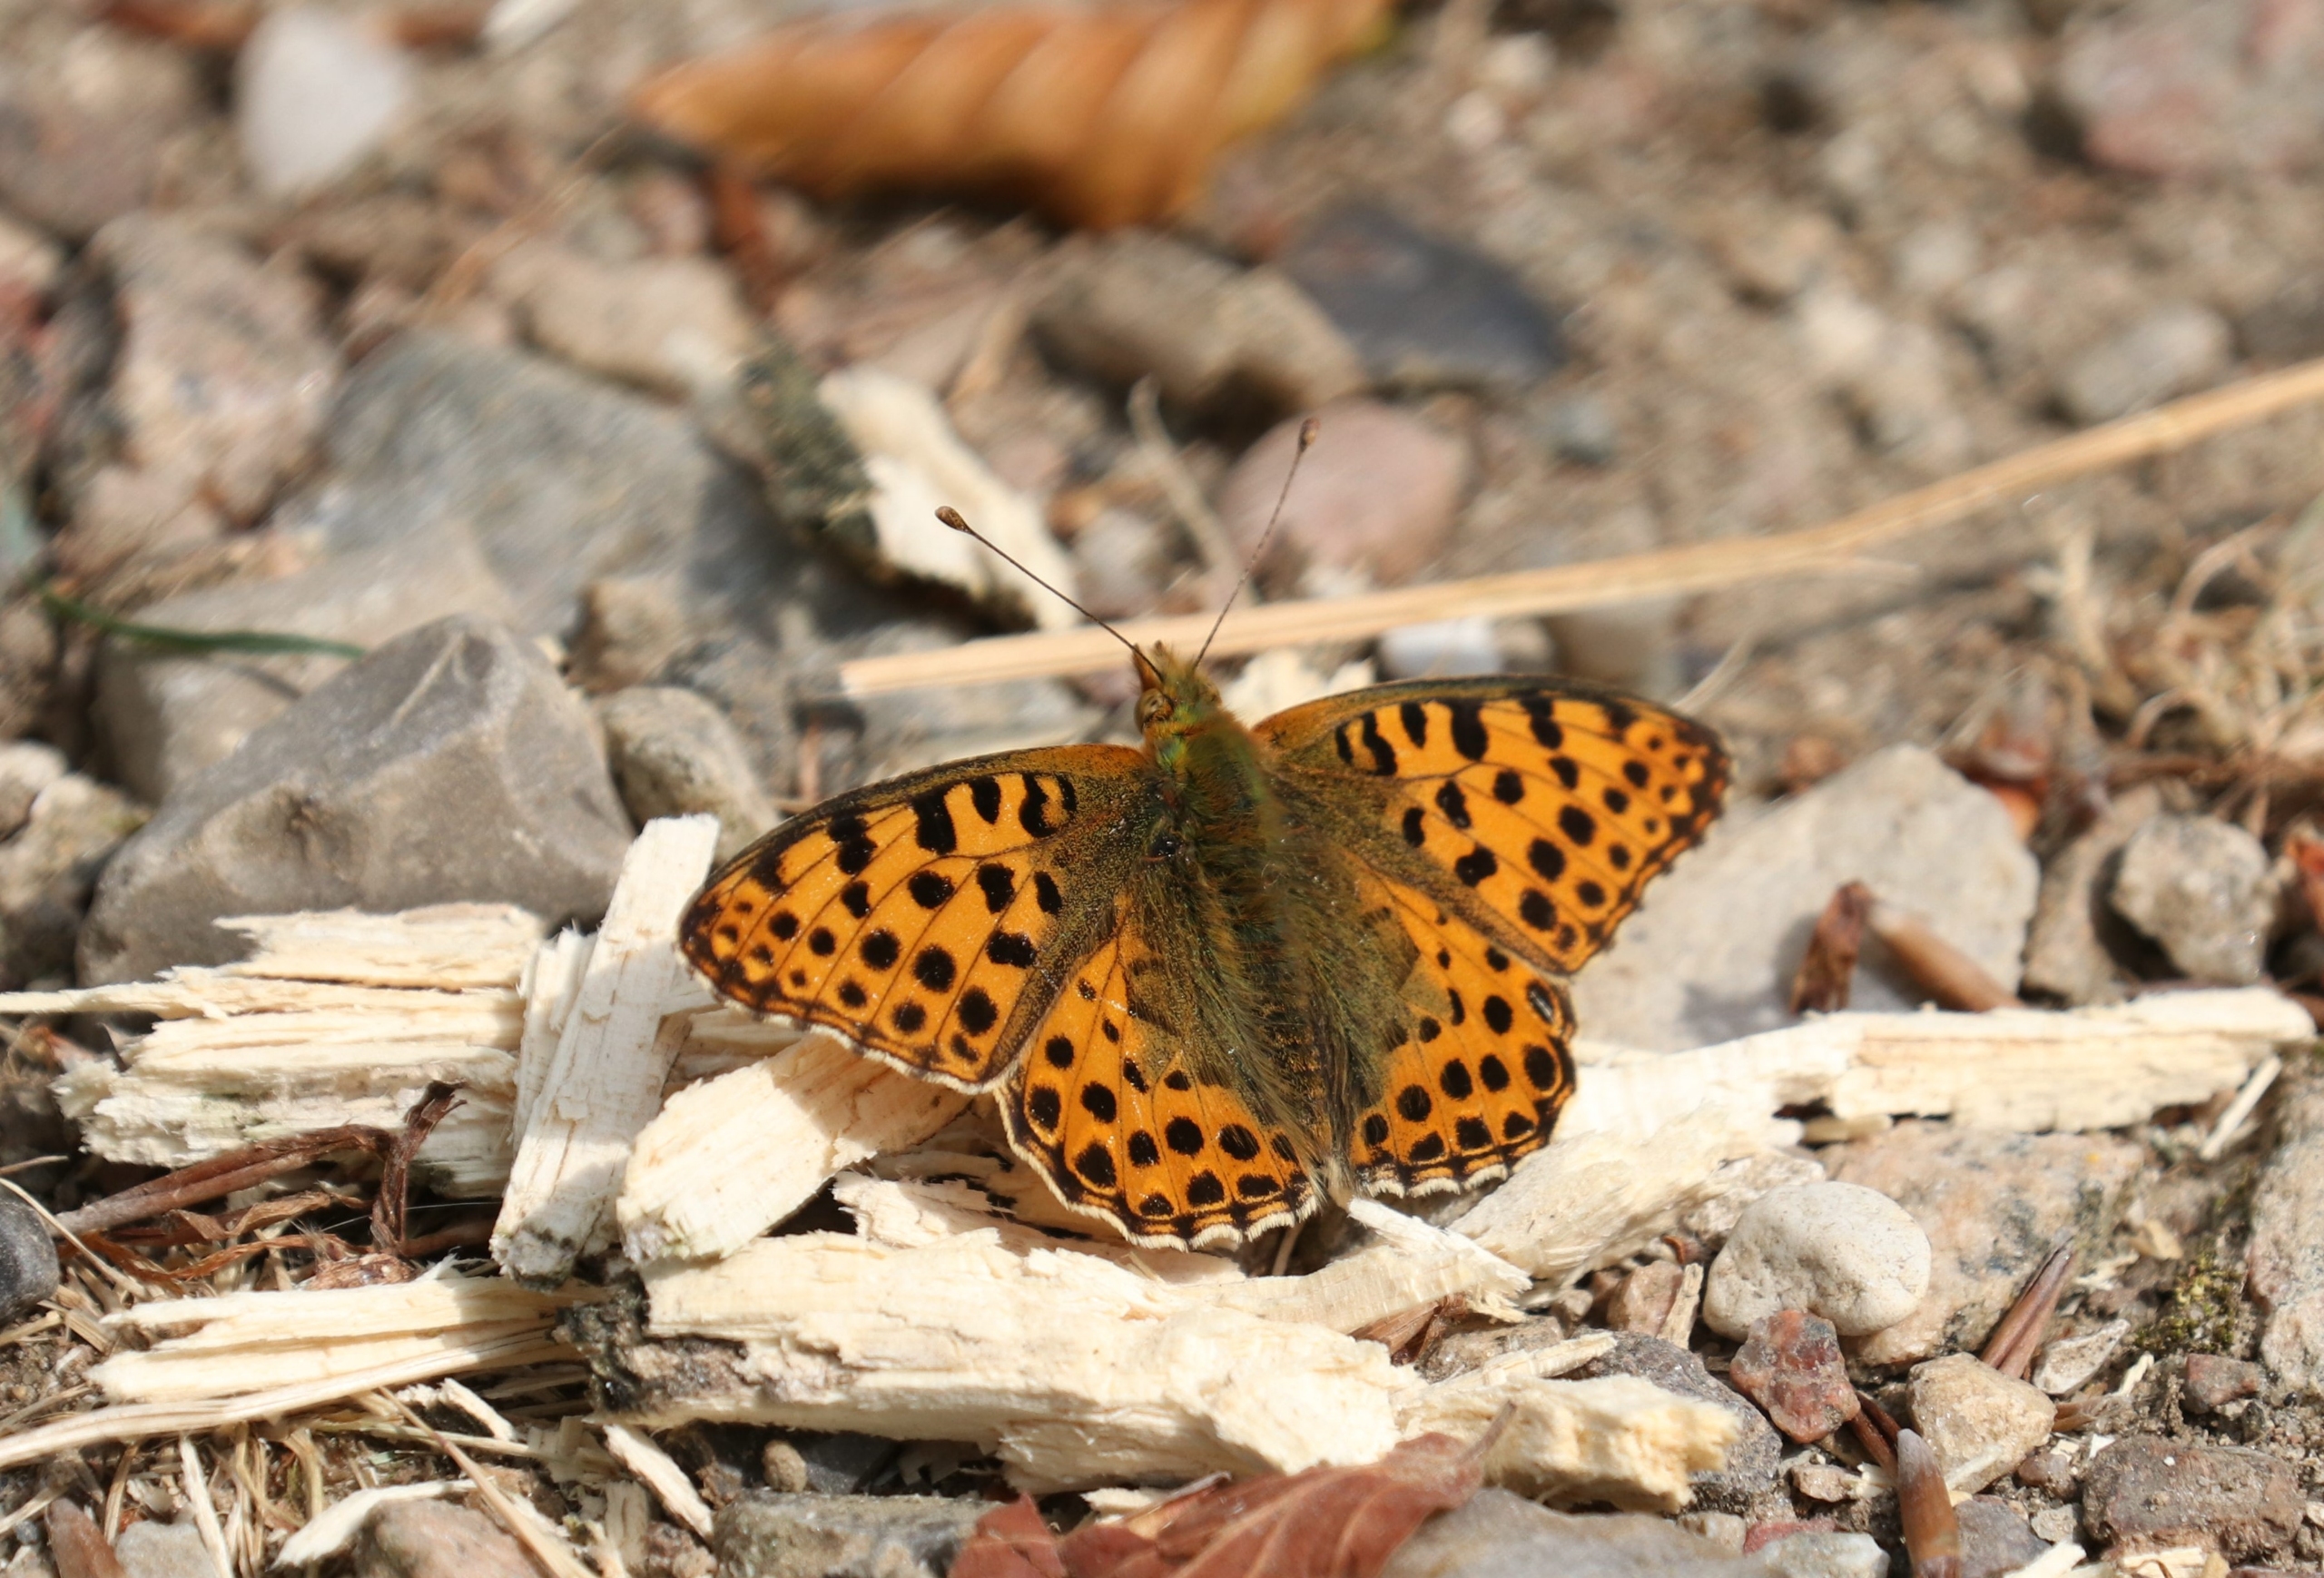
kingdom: Animalia
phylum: Arthropoda
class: Insecta
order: Lepidoptera
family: Nymphalidae
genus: Issoria
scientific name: Issoria lathonia
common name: Storplettet perlemorsommerfugl
